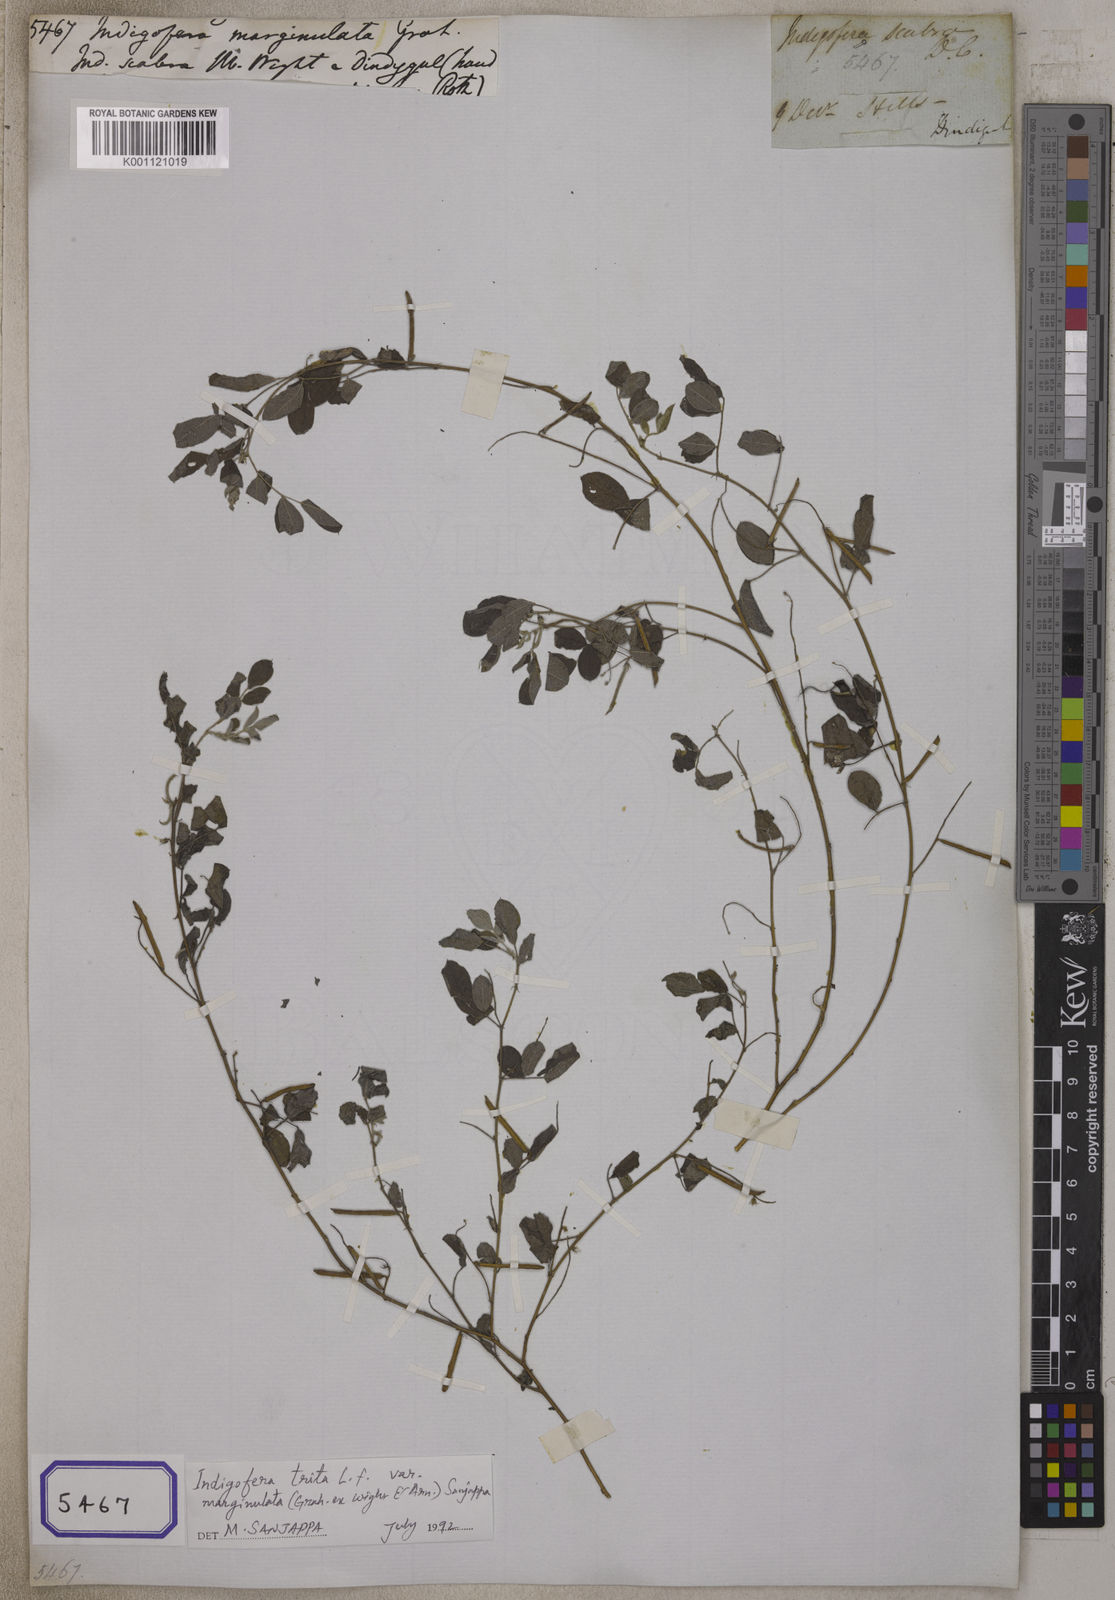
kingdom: Plantae
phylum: Tracheophyta
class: Magnoliopsida
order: Fabales
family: Fabaceae
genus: Indigofera
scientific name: Indigofera
